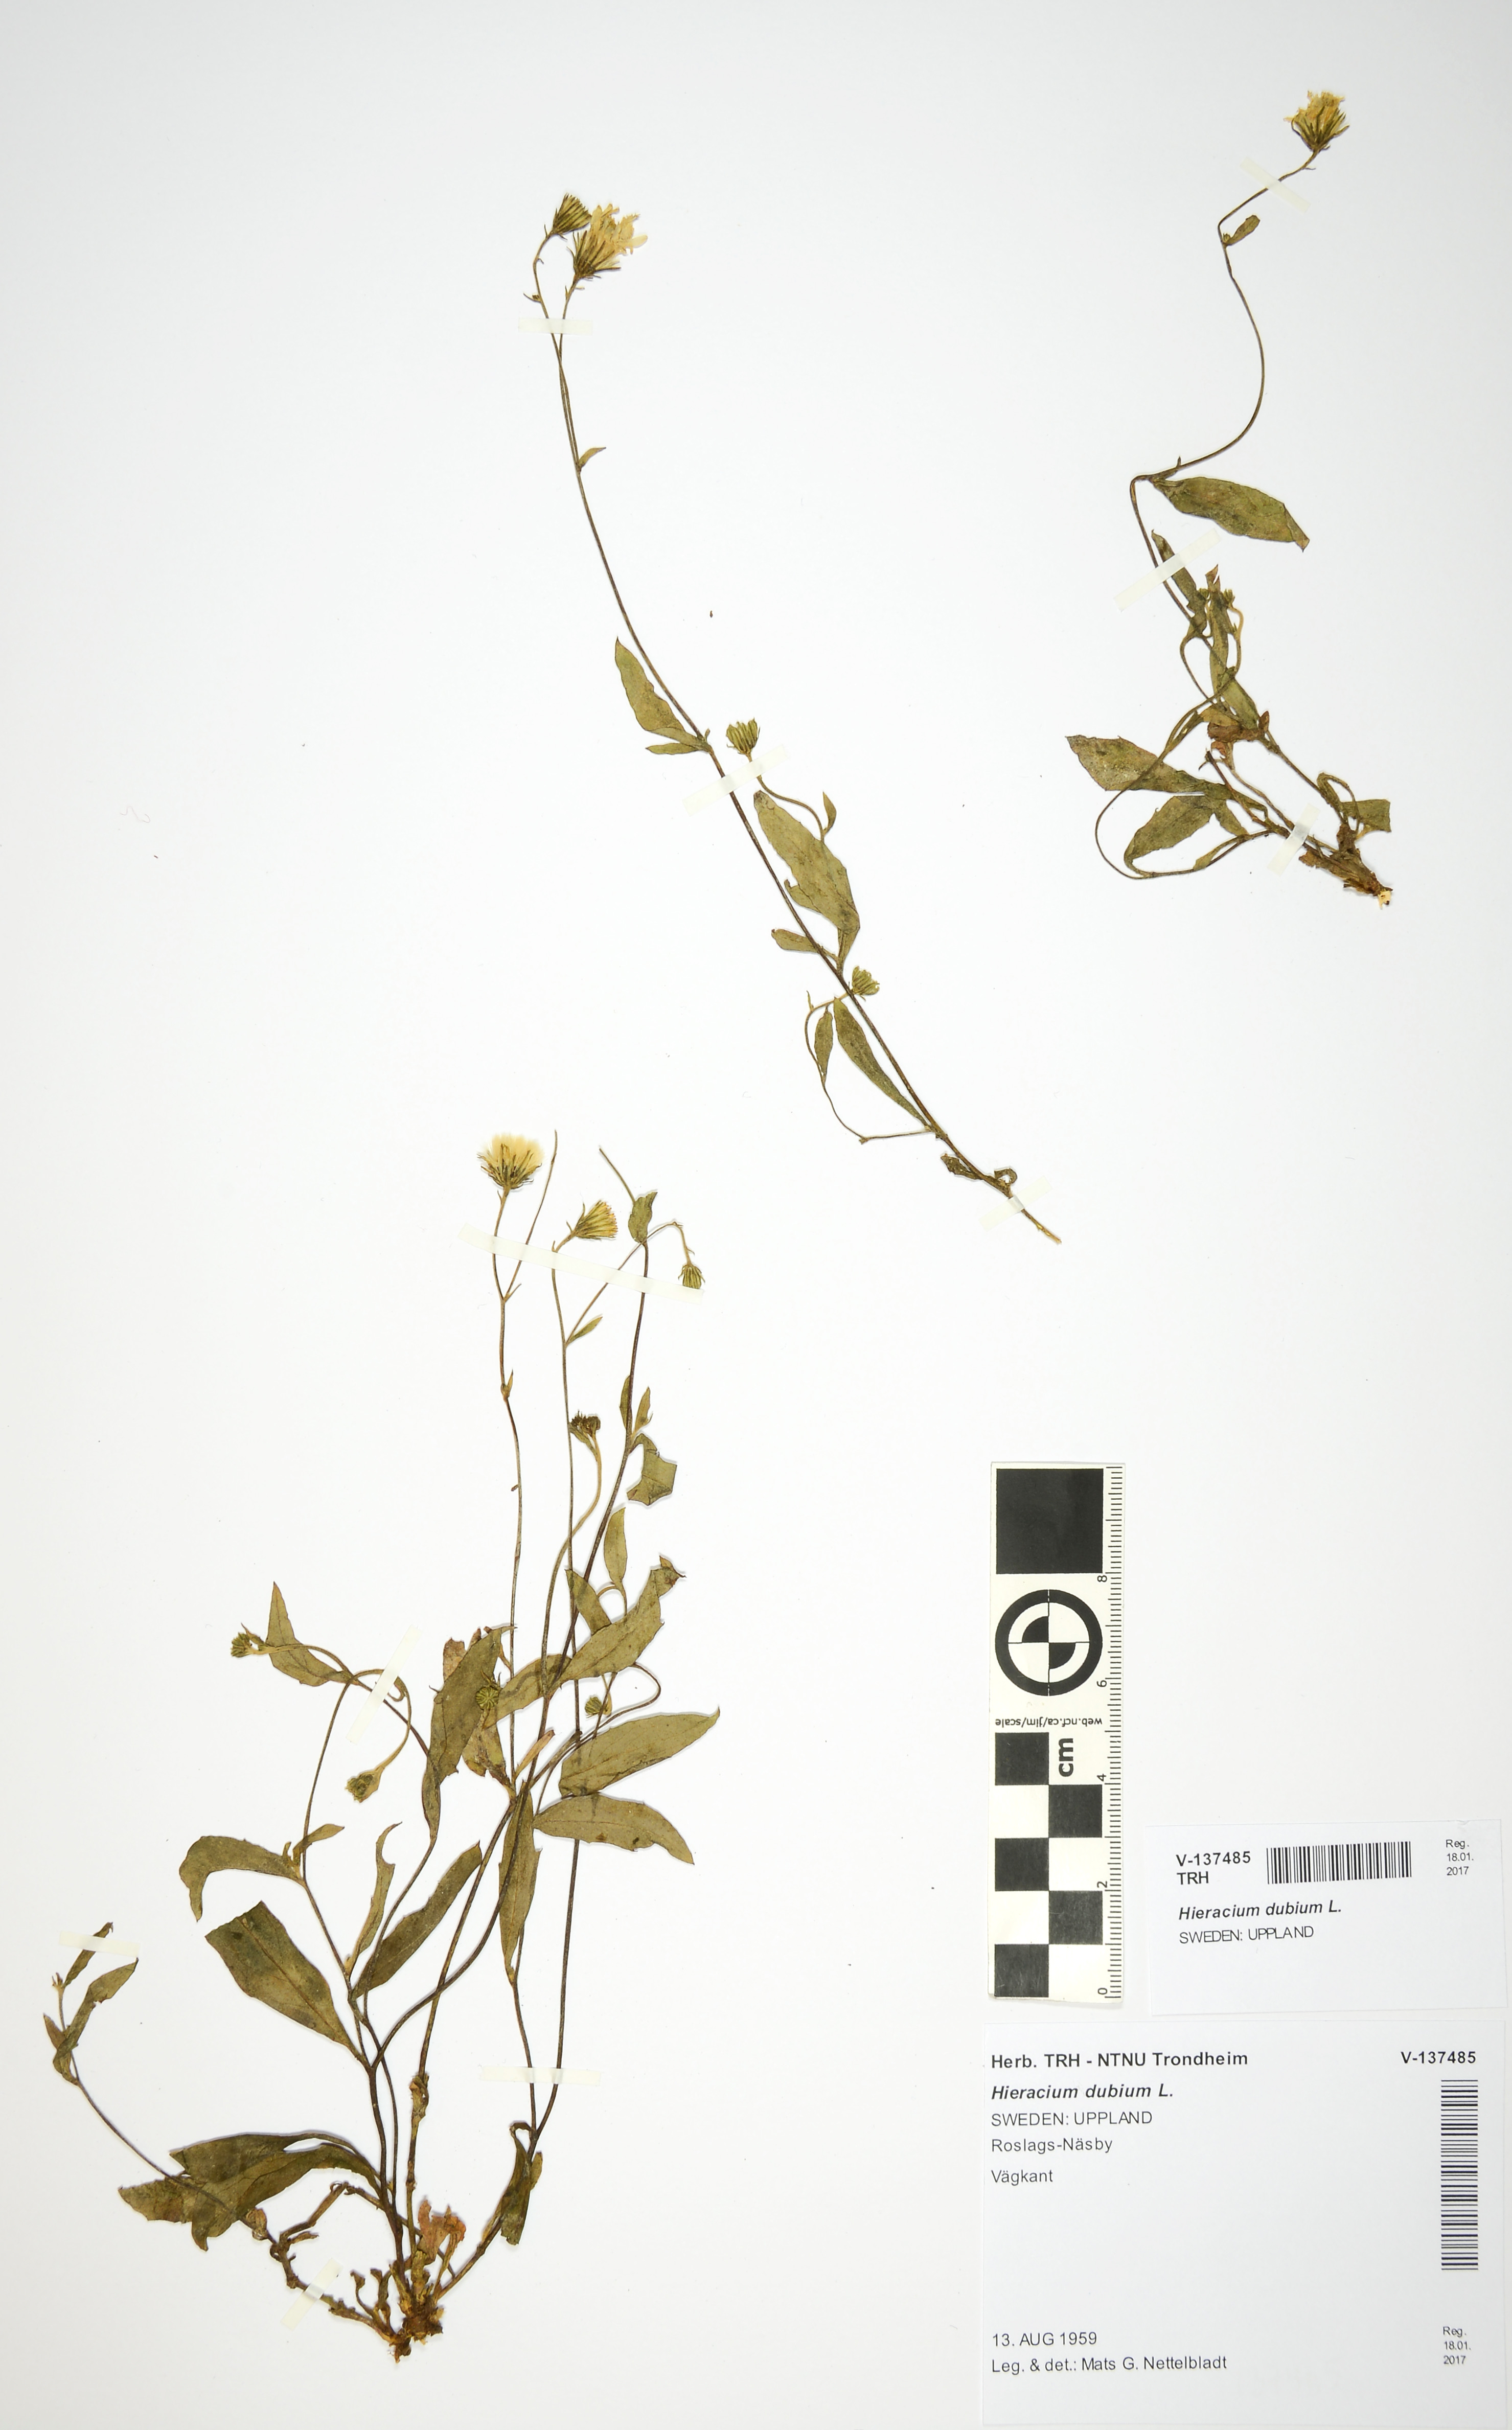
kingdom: Plantae
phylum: Tracheophyta
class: Magnoliopsida
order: Asterales
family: Asteraceae
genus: Pilosella
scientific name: Pilosella dubia
